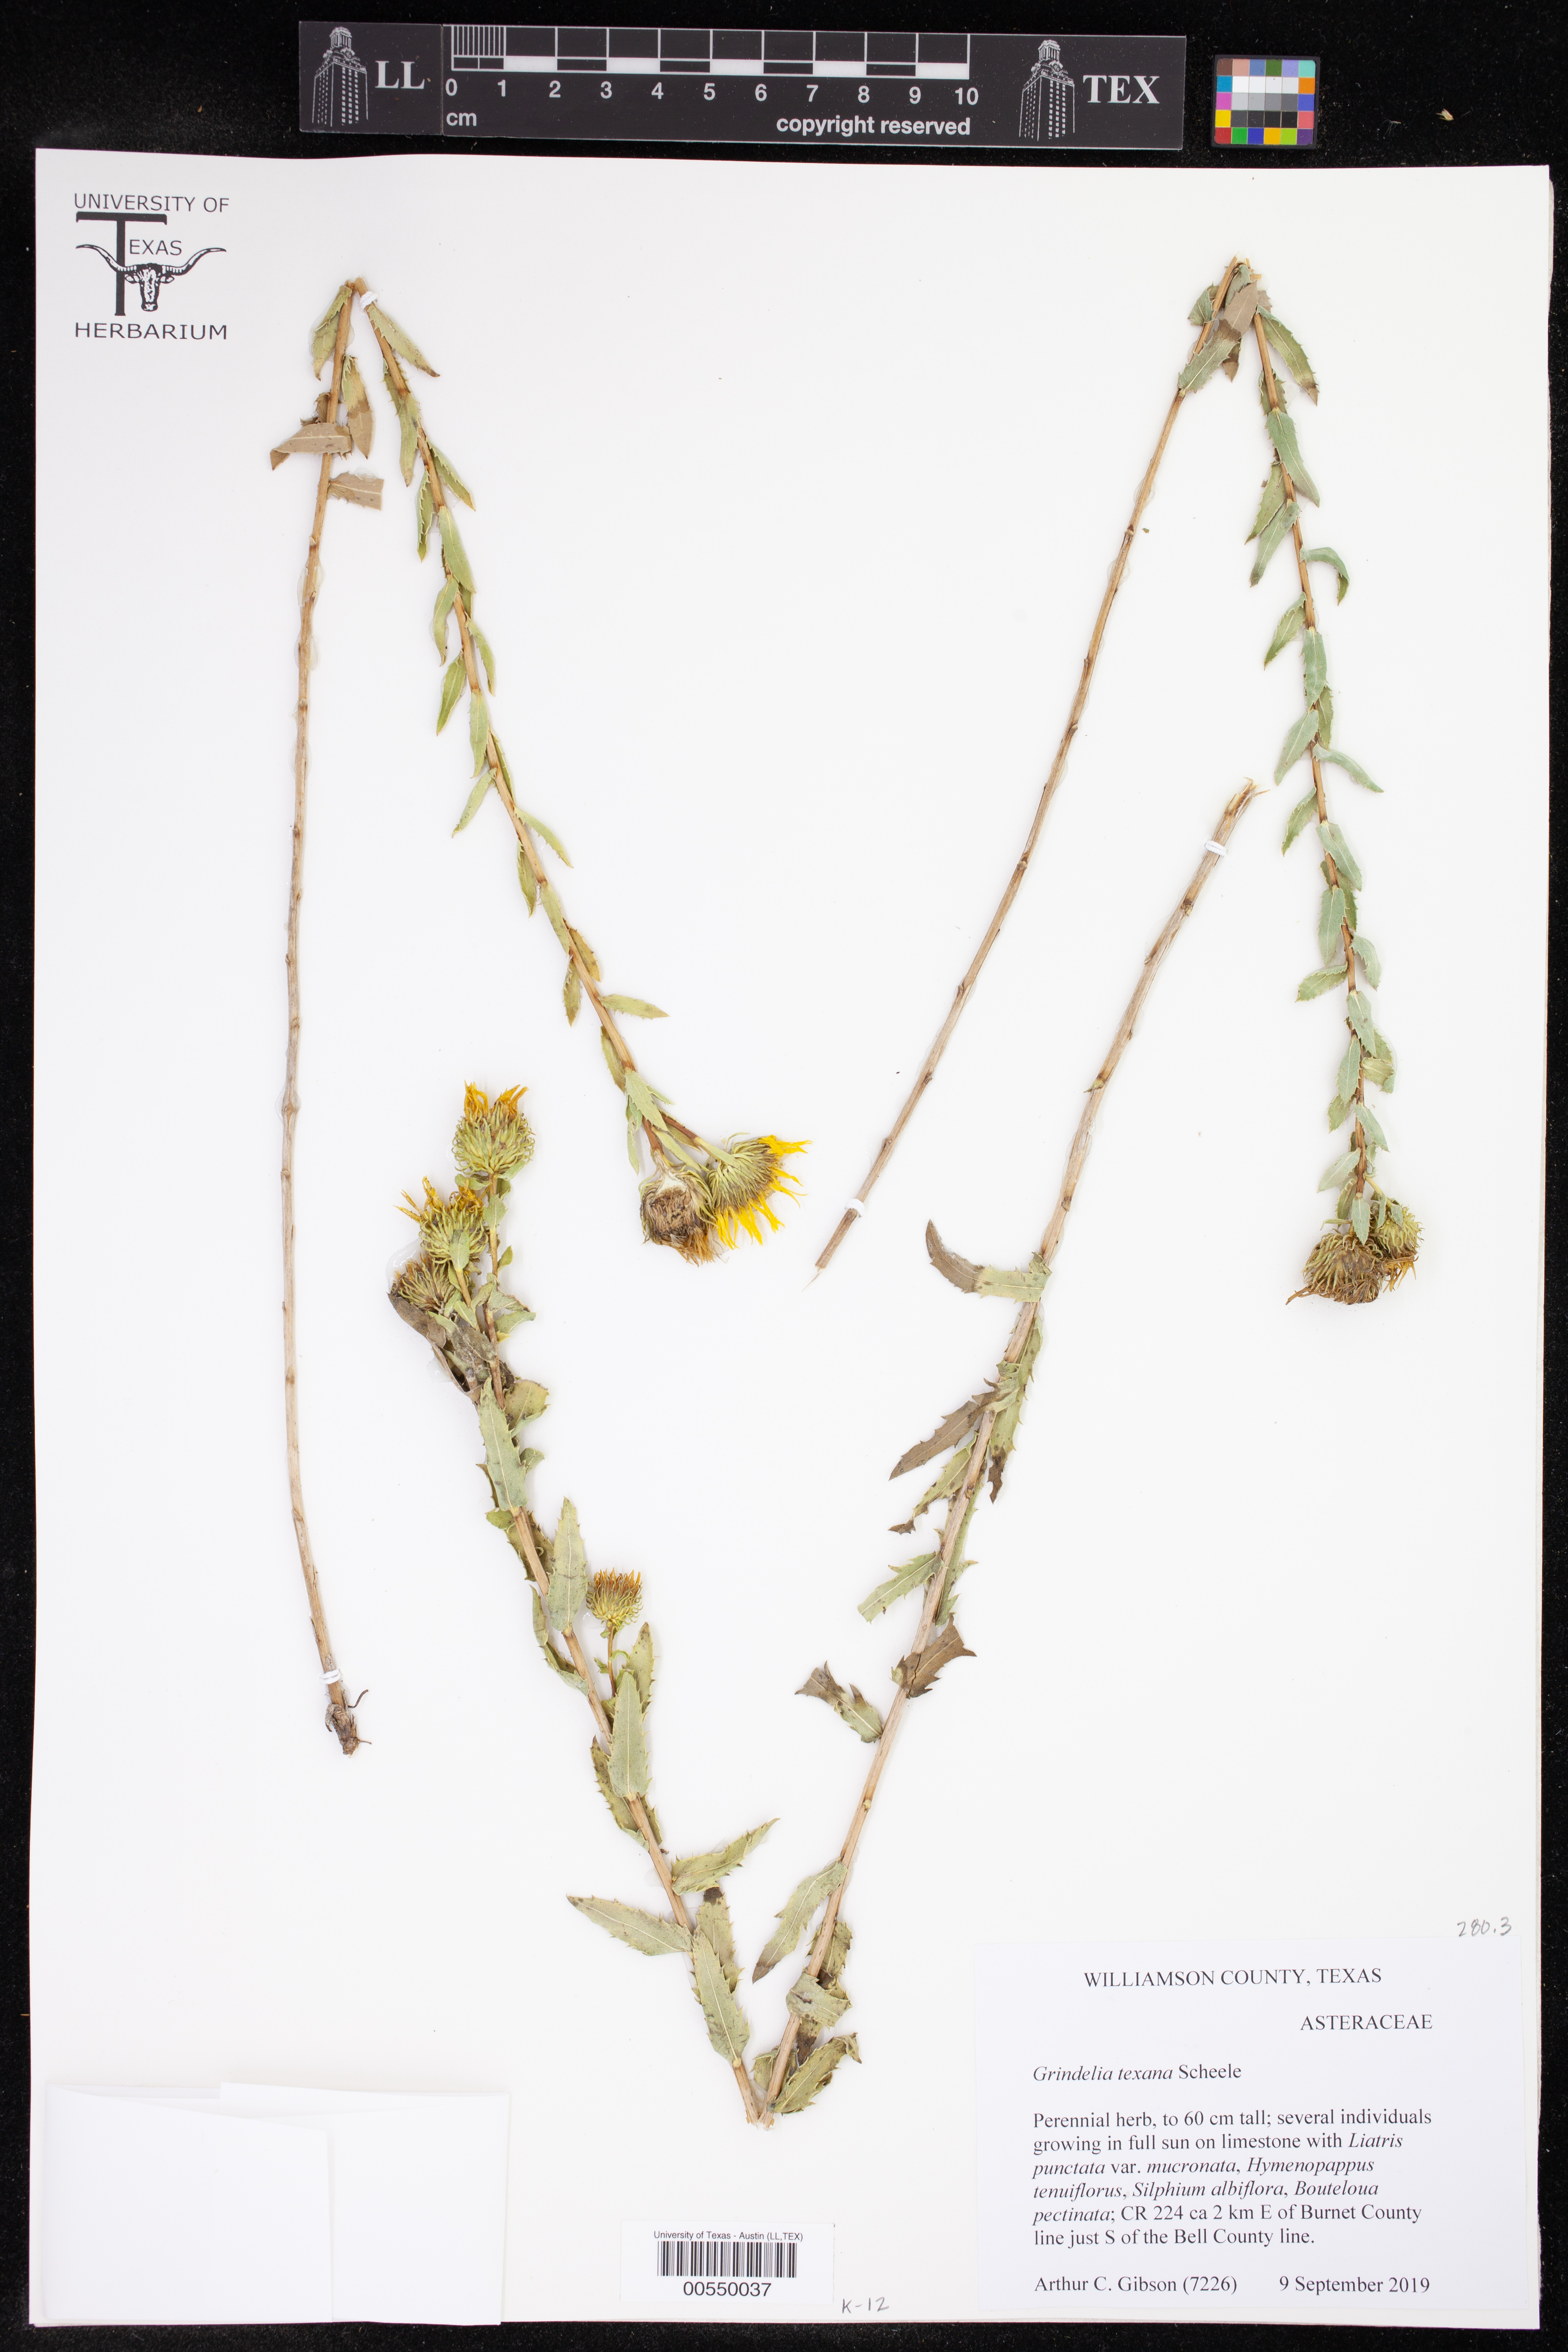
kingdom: Plantae
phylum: Tracheophyta
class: Magnoliopsida
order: Asterales
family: Asteraceae
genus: Grindelia
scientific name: Grindelia texana
